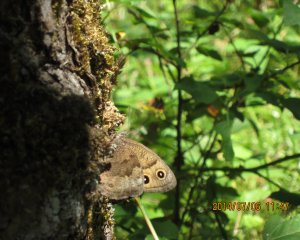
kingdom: Animalia
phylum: Arthropoda
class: Insecta
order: Lepidoptera
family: Nymphalidae
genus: Cercyonis
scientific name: Cercyonis pegala
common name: Common Wood-Nymph
